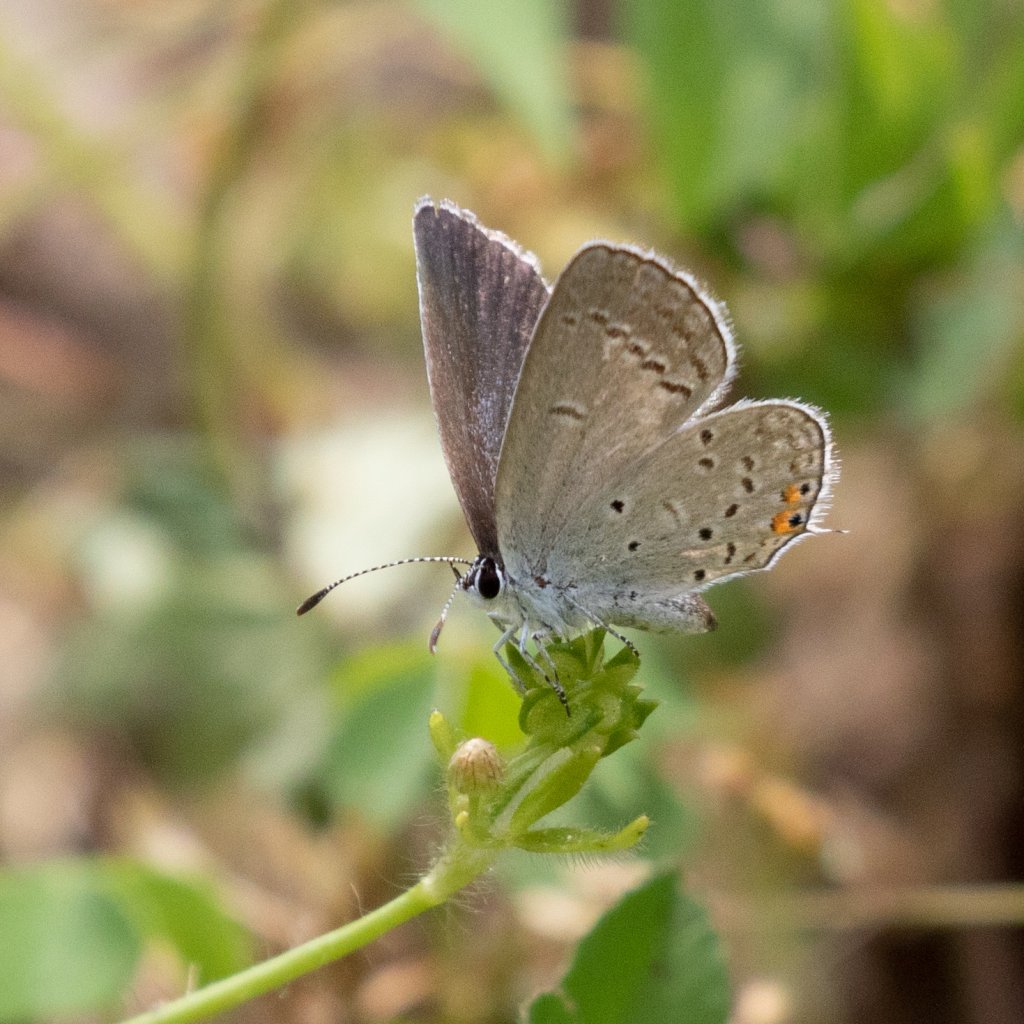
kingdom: Animalia
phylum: Arthropoda
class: Insecta
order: Lepidoptera
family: Lycaenidae
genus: Elkalyce
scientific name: Elkalyce comyntas
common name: Eastern Tailed-Blue
